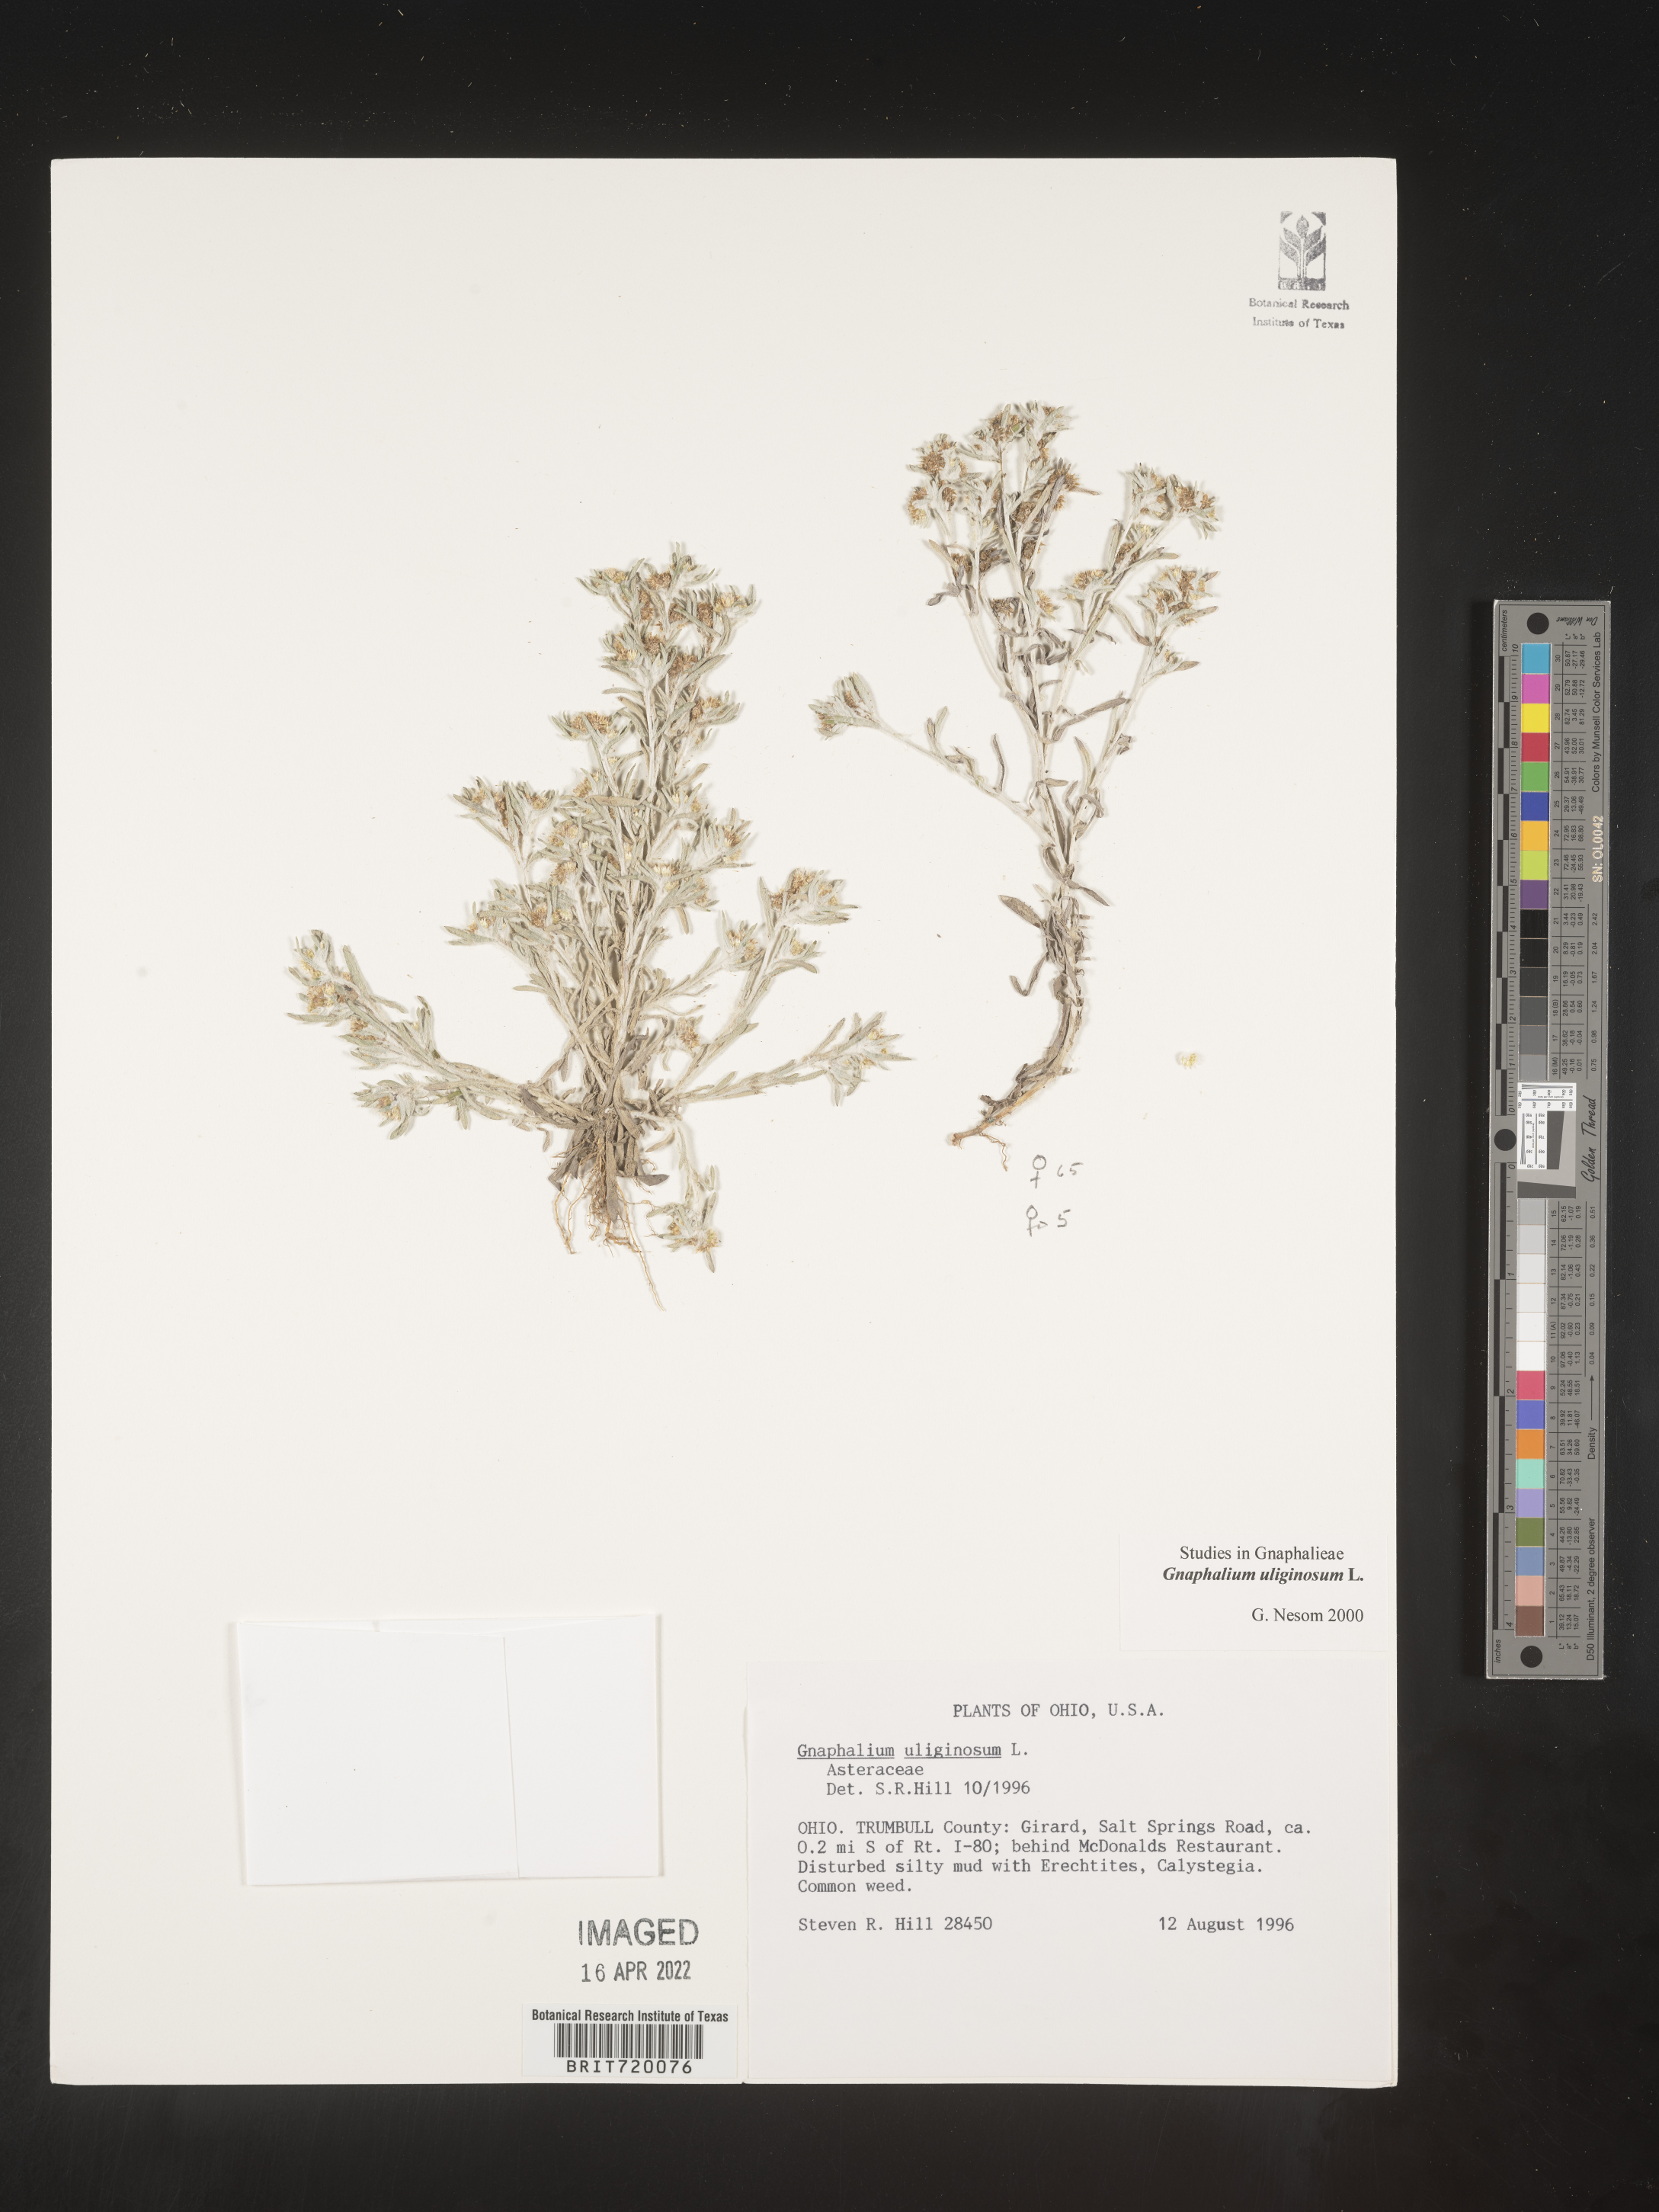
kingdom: Plantae
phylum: Tracheophyta
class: Magnoliopsida
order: Asterales
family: Asteraceae
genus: Gnaphalium
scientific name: Gnaphalium uliginosum
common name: Marsh cudweed
